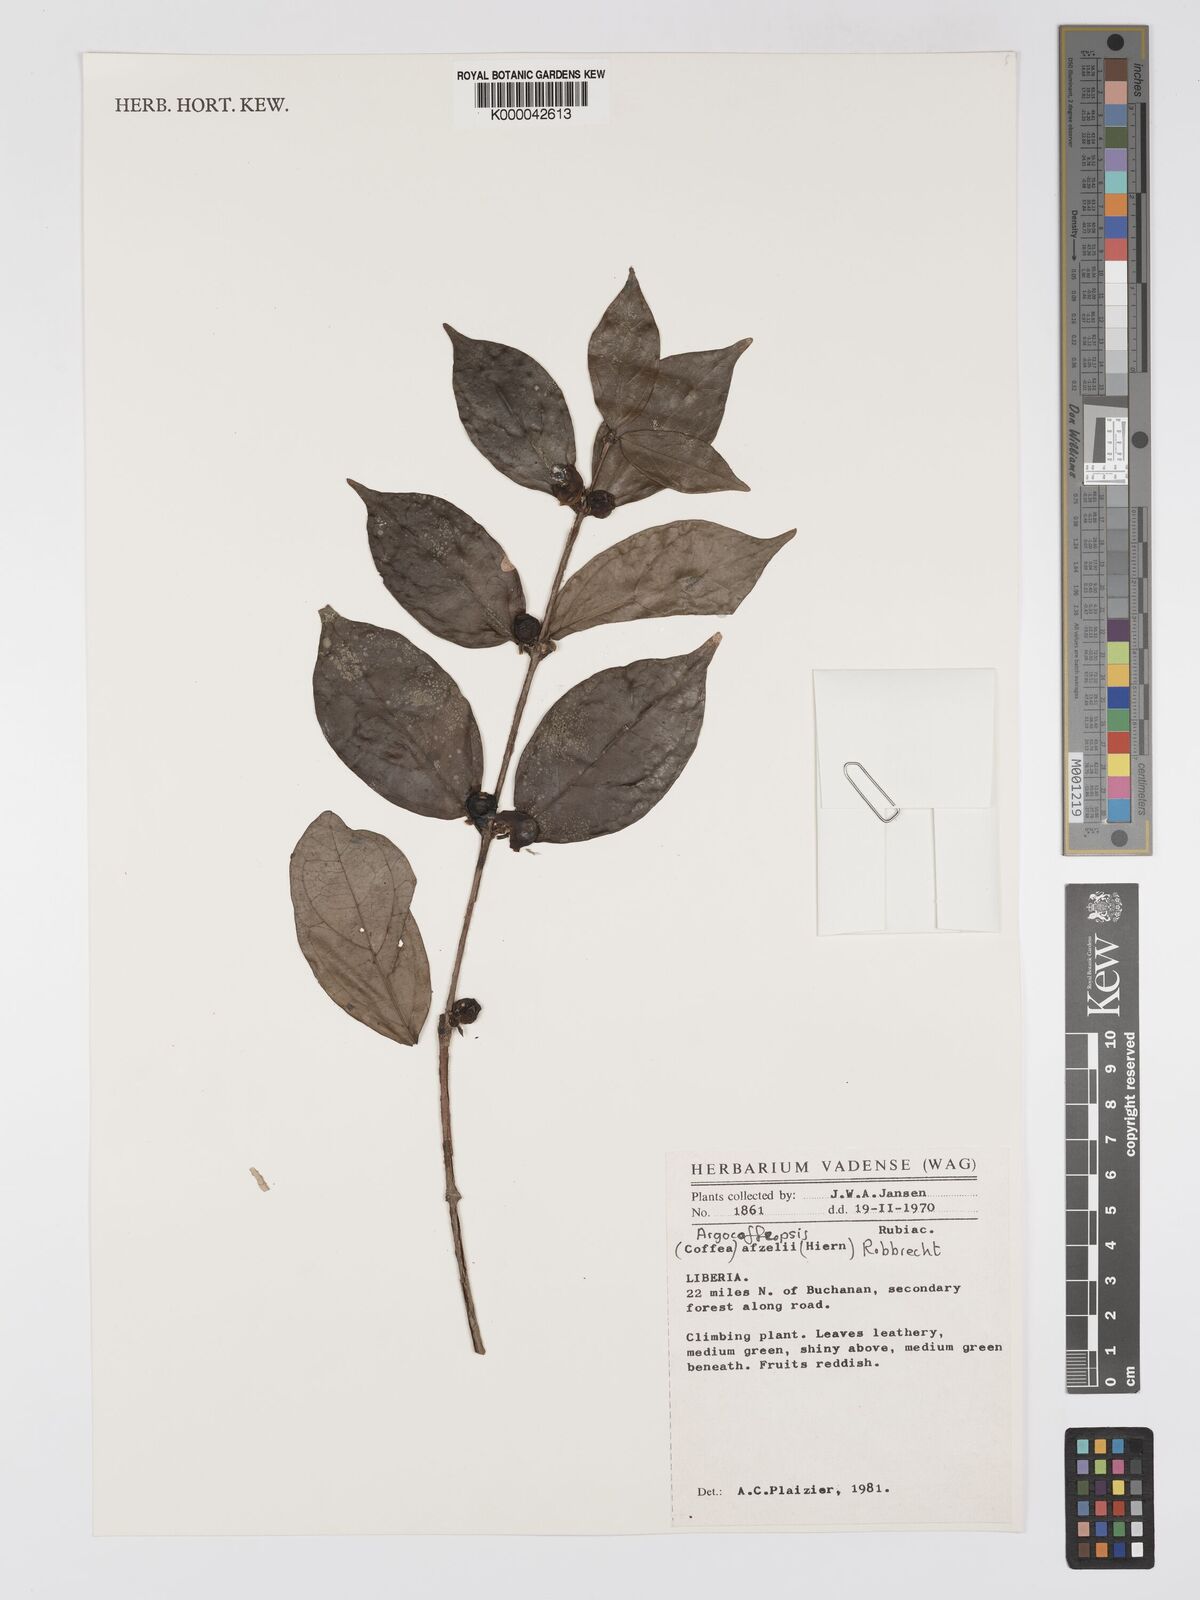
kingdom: Plantae
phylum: Tracheophyta
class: Magnoliopsida
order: Gentianales
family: Rubiaceae
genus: Argocoffeopsis
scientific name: Argocoffeopsis afzelii
